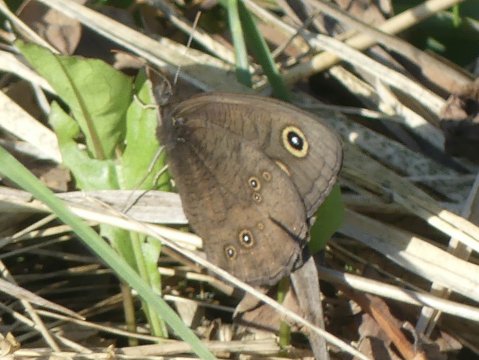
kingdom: Animalia
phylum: Arthropoda
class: Insecta
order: Lepidoptera
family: Nymphalidae
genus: Cercyonis
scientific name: Cercyonis pegala
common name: Common Wood-Nymph
